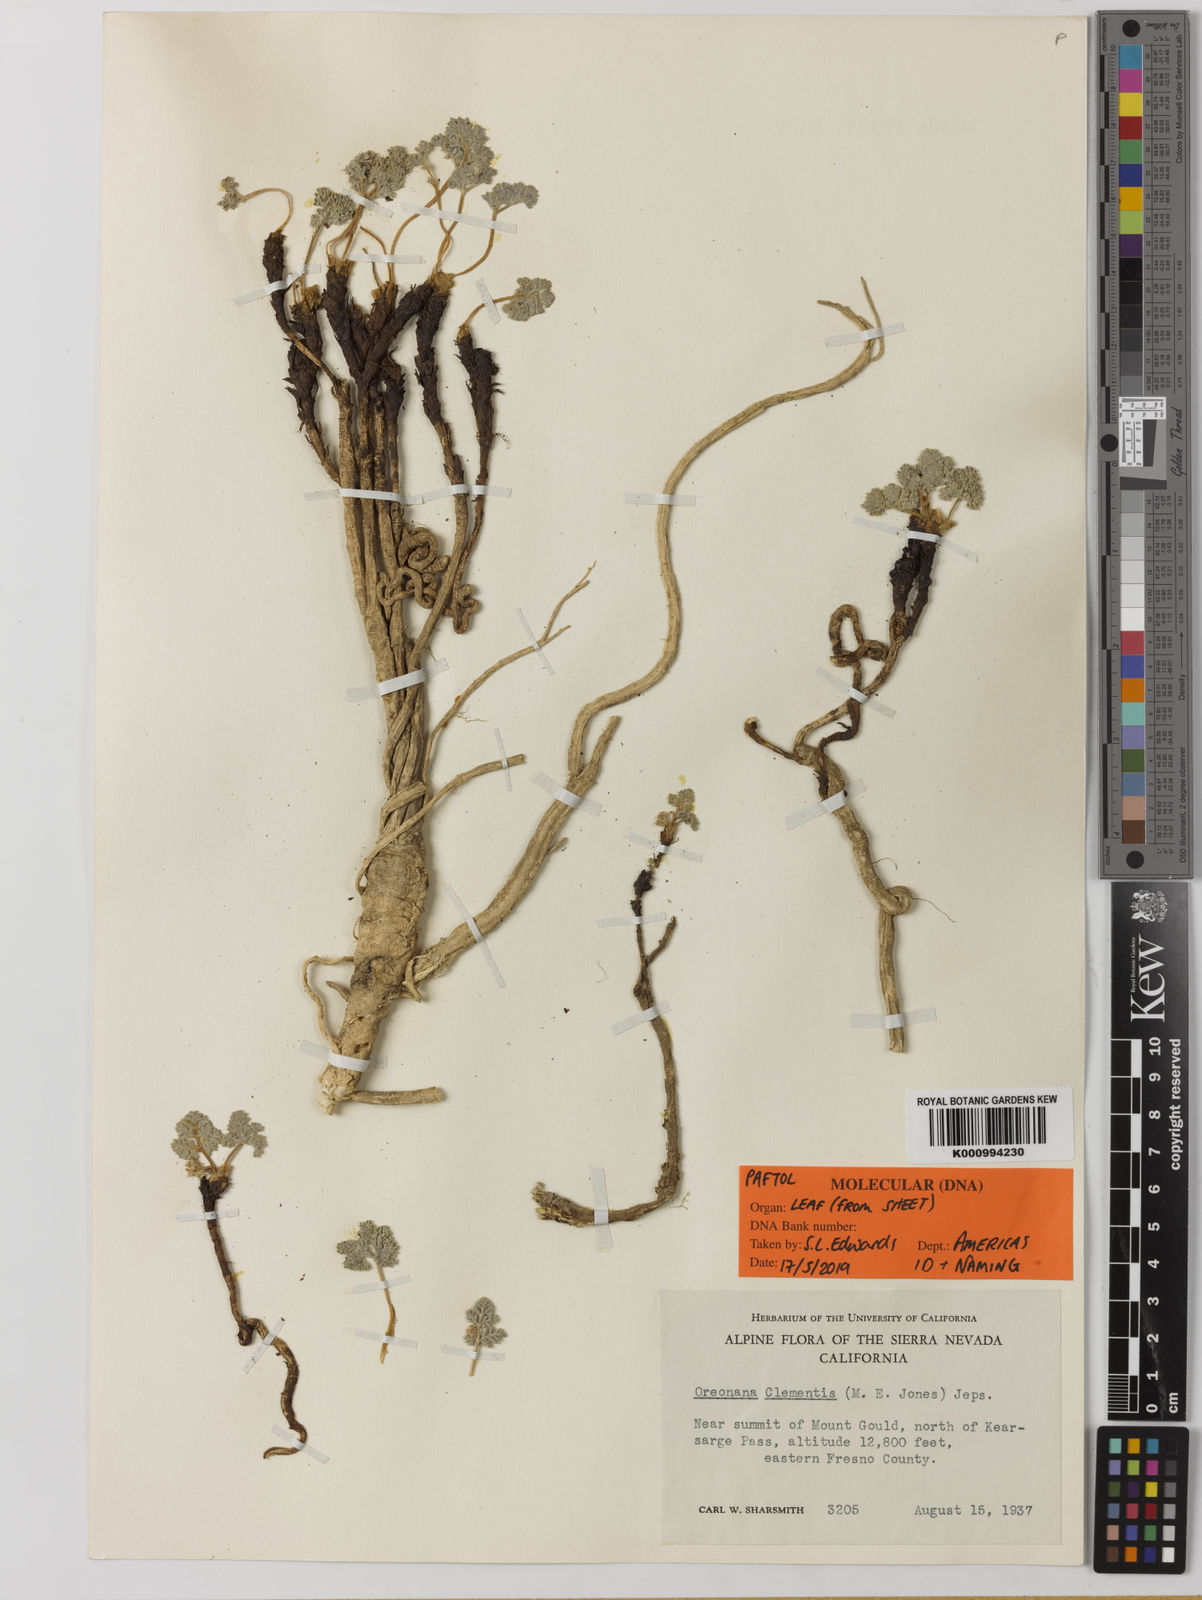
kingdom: Plantae
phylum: Tracheophyta
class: Magnoliopsida
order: Apiales
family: Apiaceae
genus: Oreonana
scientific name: Oreonana clementis
